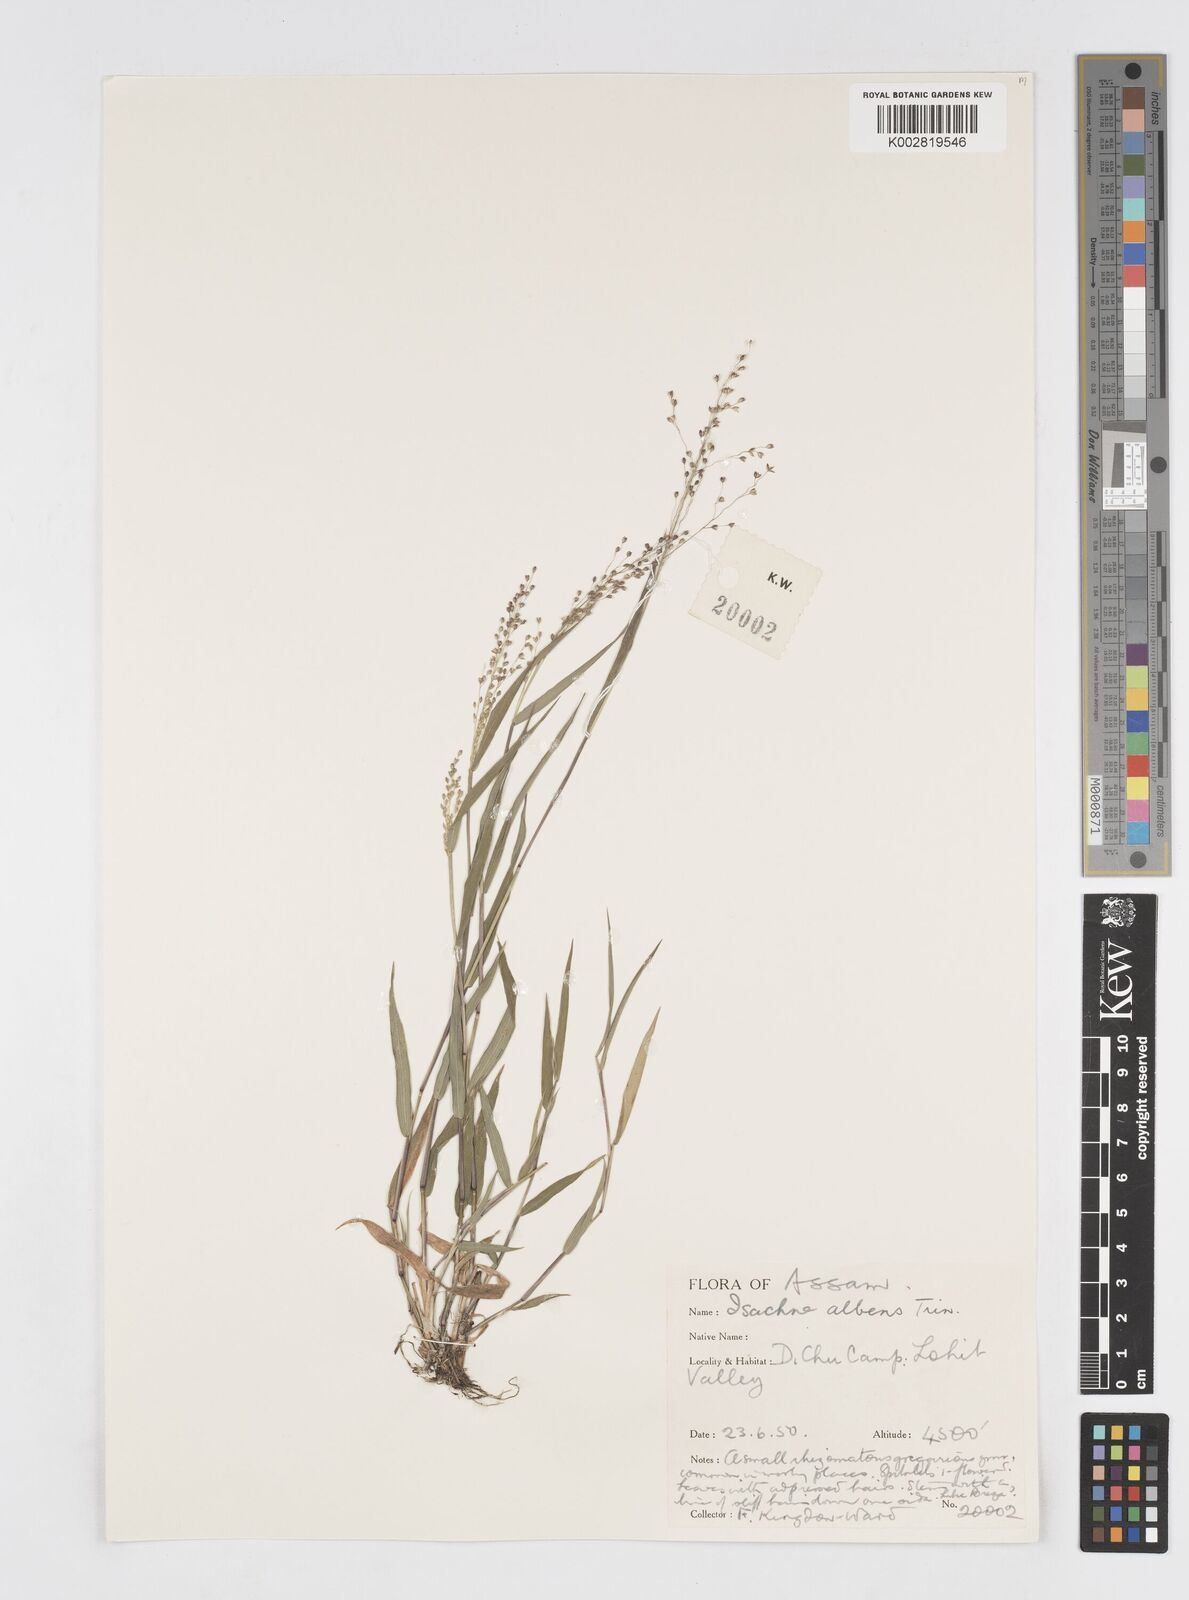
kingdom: Plantae
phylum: Tracheophyta
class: Liliopsida
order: Poales
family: Poaceae
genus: Isachne
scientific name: Isachne albens
